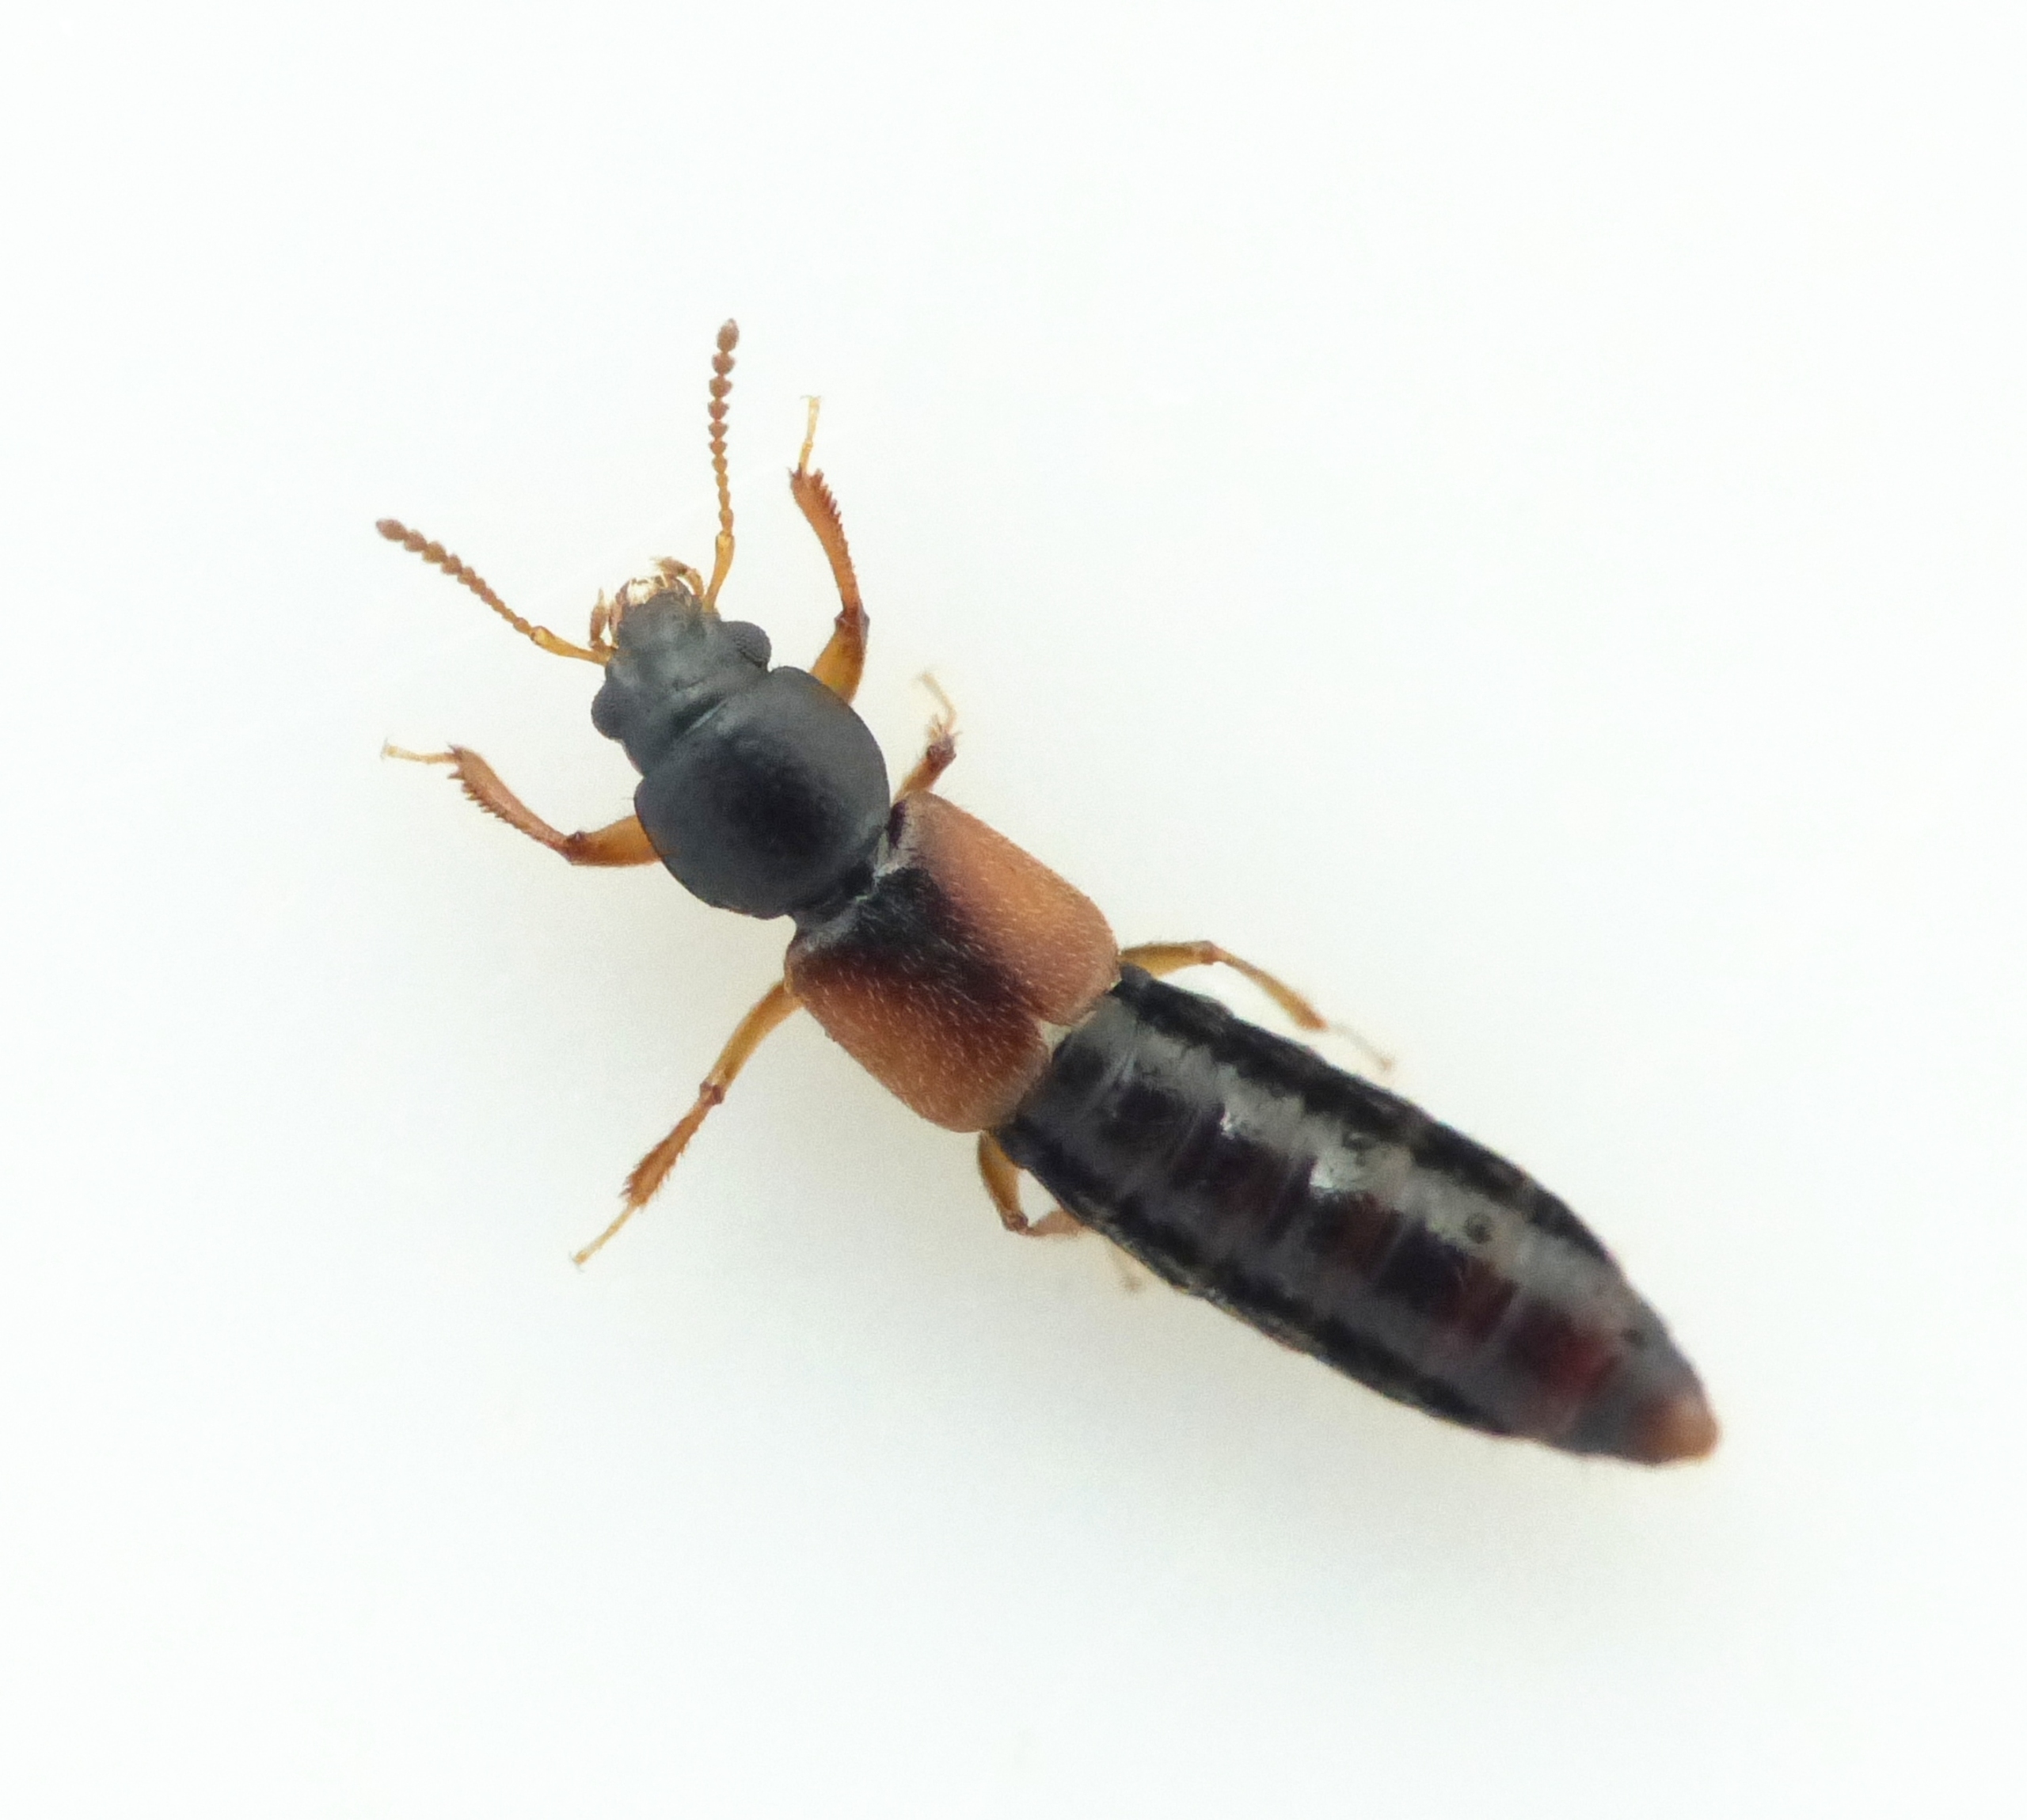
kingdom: Animalia
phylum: Arthropoda
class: Insecta
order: Coleoptera
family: Staphylinidae
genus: Bledius
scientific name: Bledius opacus
